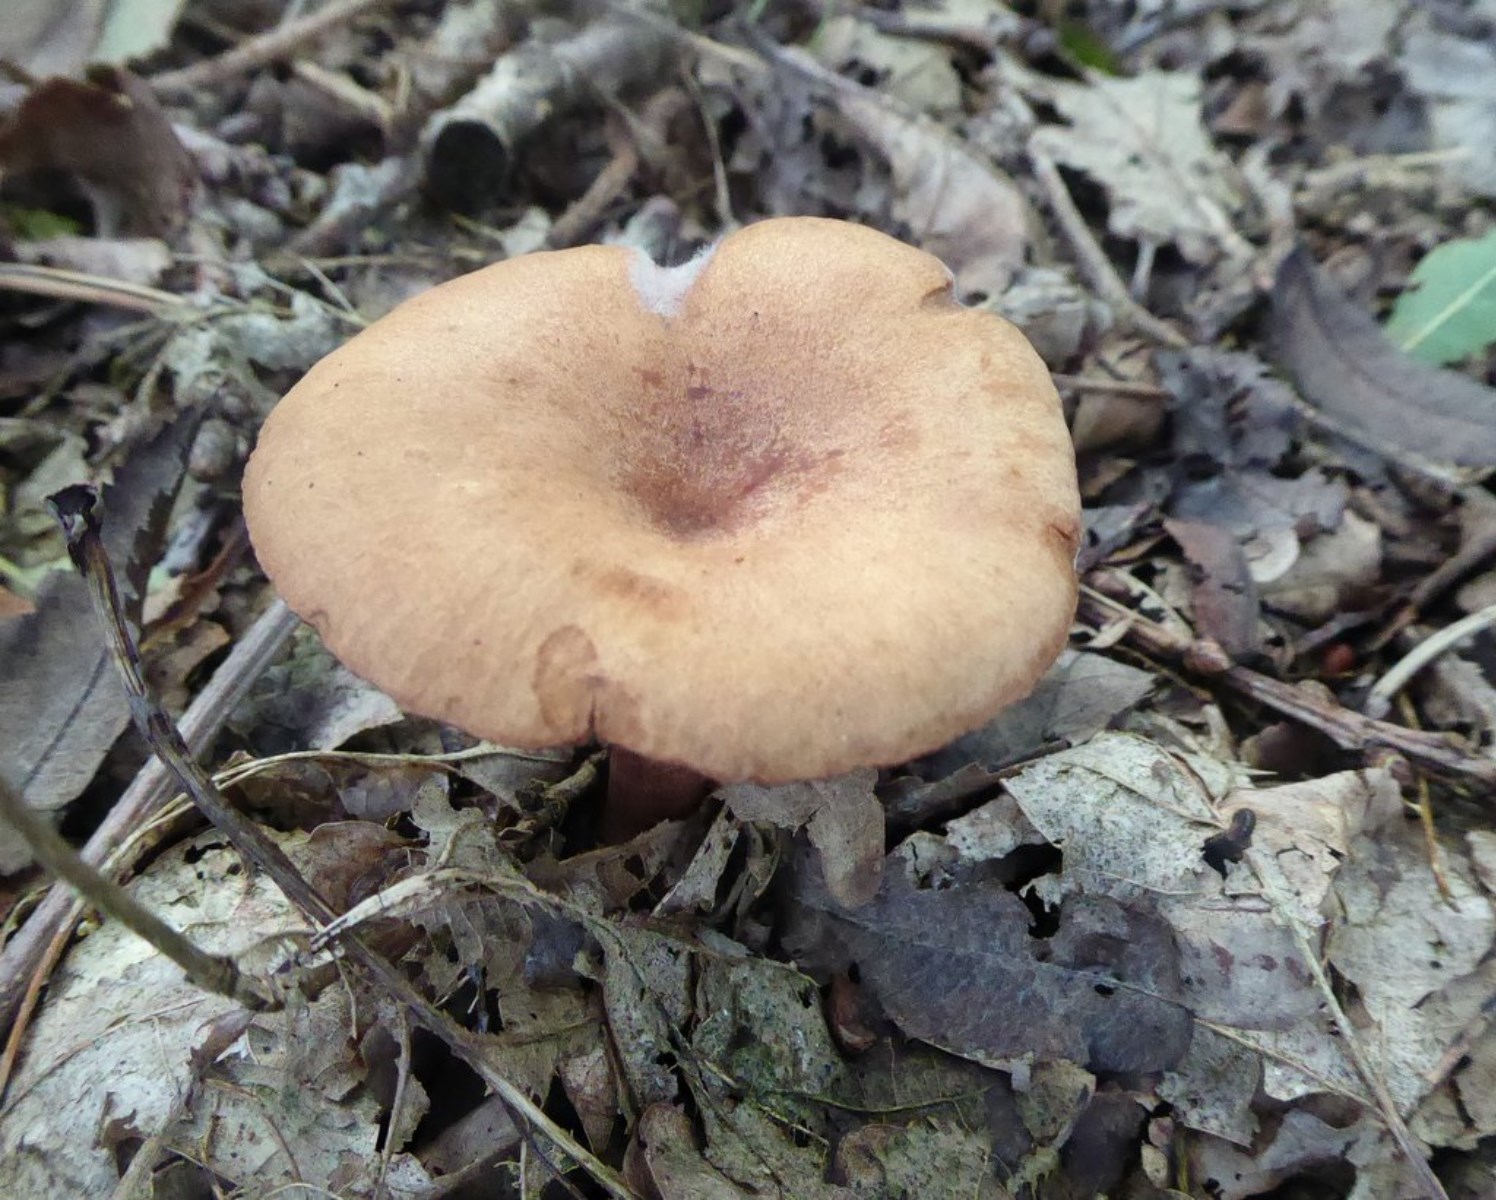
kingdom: Fungi
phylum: Basidiomycota
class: Agaricomycetes
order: Russulales
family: Russulaceae
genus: Lactarius
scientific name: Lactarius quietus
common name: ege-mælkehat
